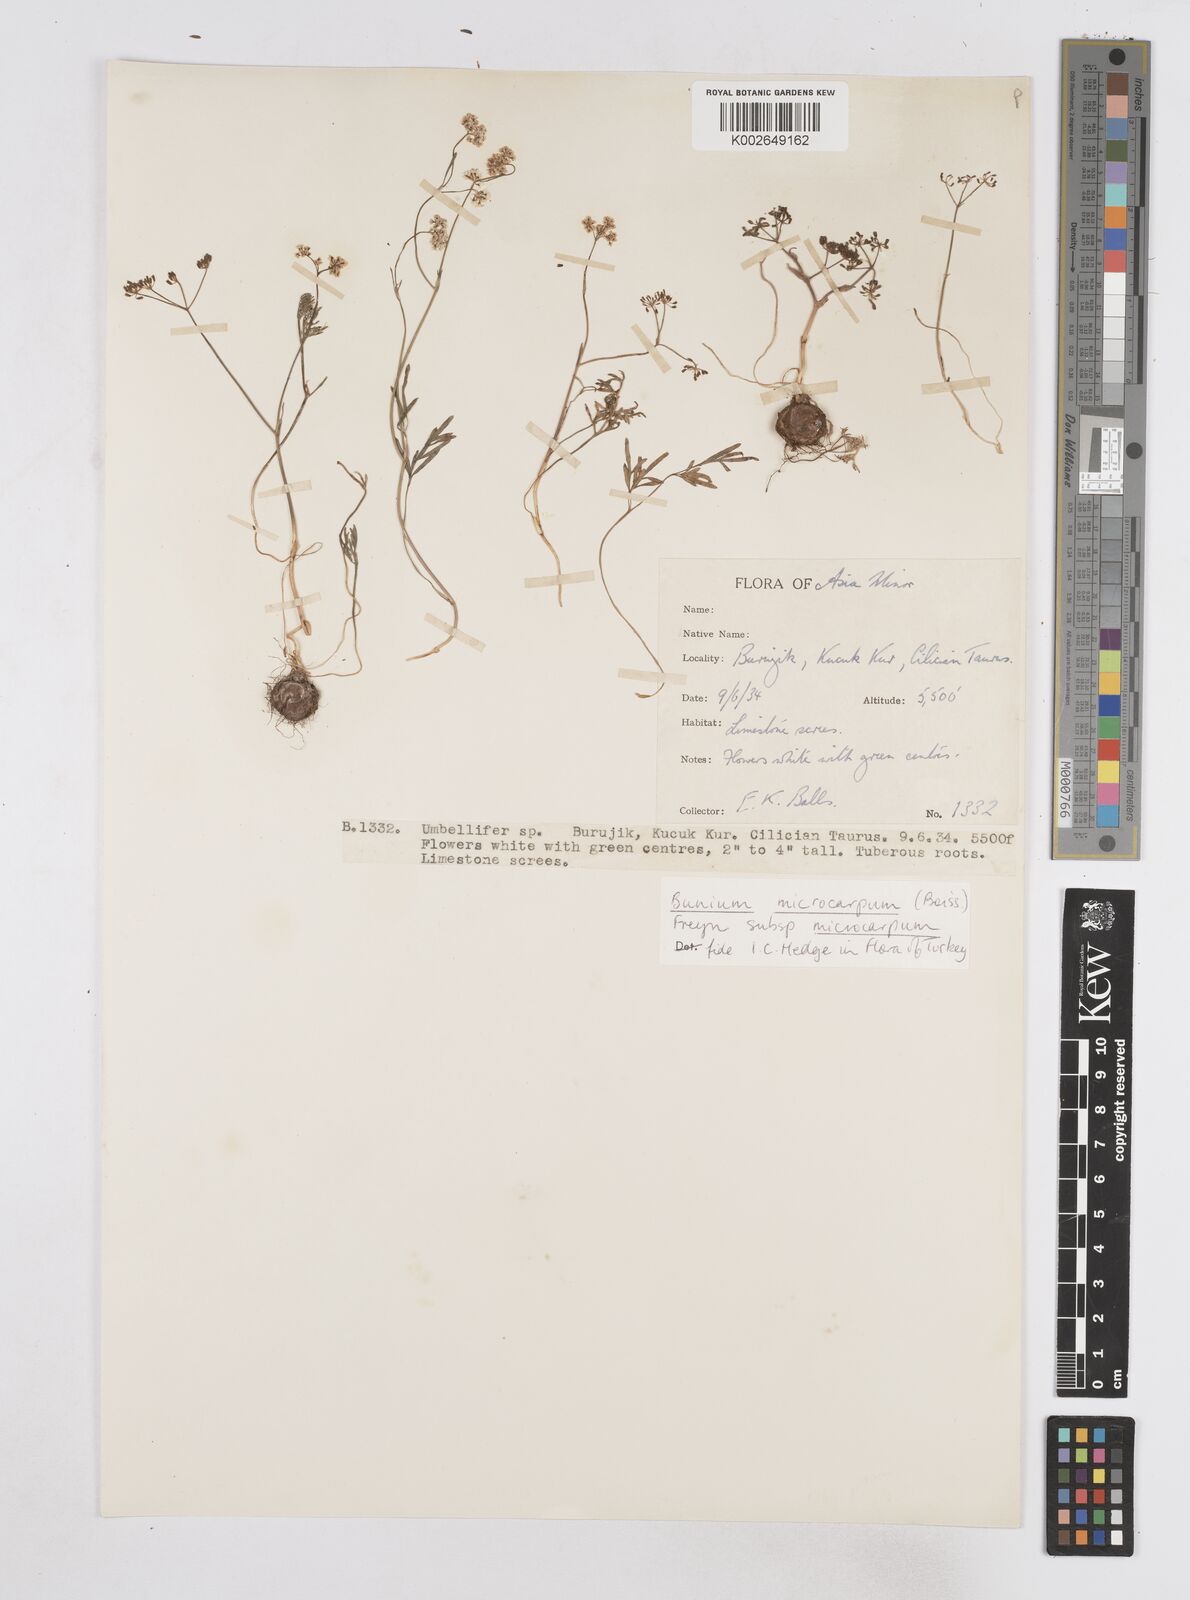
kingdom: Plantae
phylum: Tracheophyta
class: Magnoliopsida
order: Apiales
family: Apiaceae
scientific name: Apiaceae
